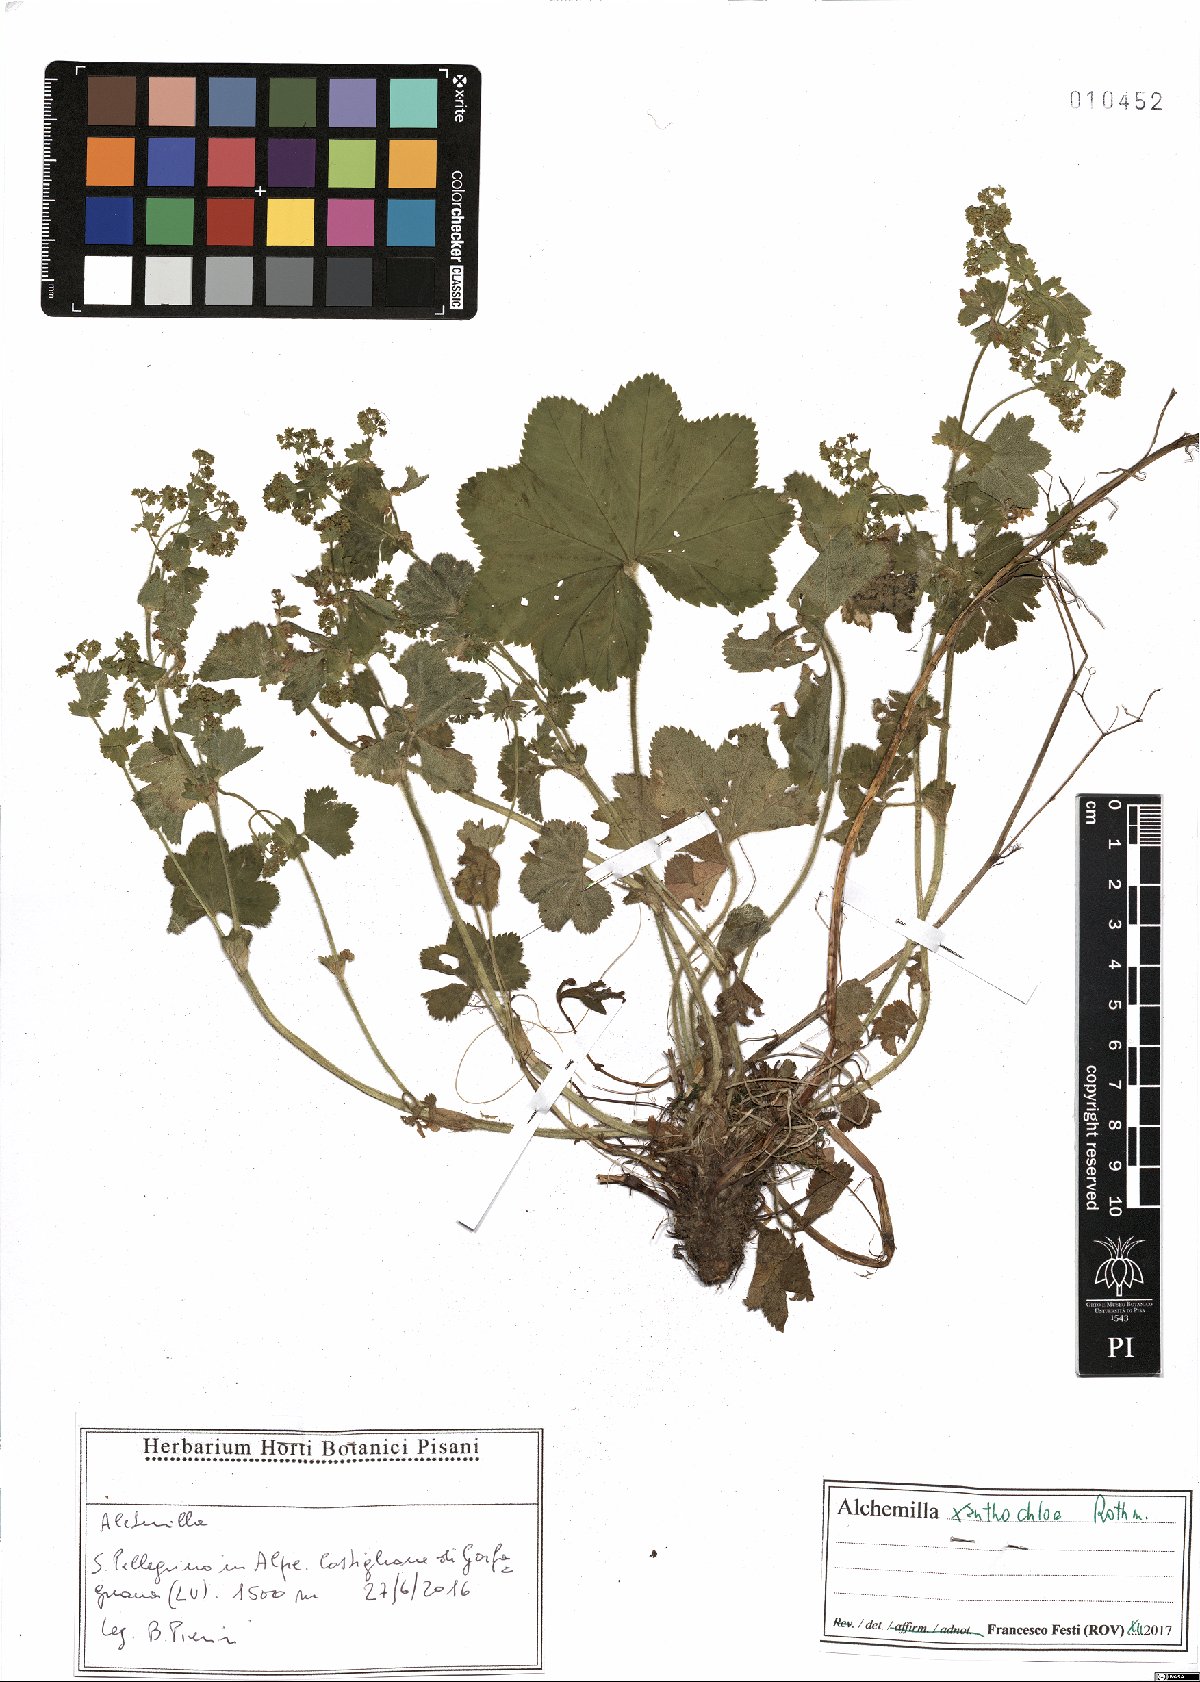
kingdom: Plantae
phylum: Tracheophyta
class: Magnoliopsida
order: Rosales
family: Rosaceae
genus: Alchemilla
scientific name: Alchemilla xanthochlora
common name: Intermediate lady's-mantle
